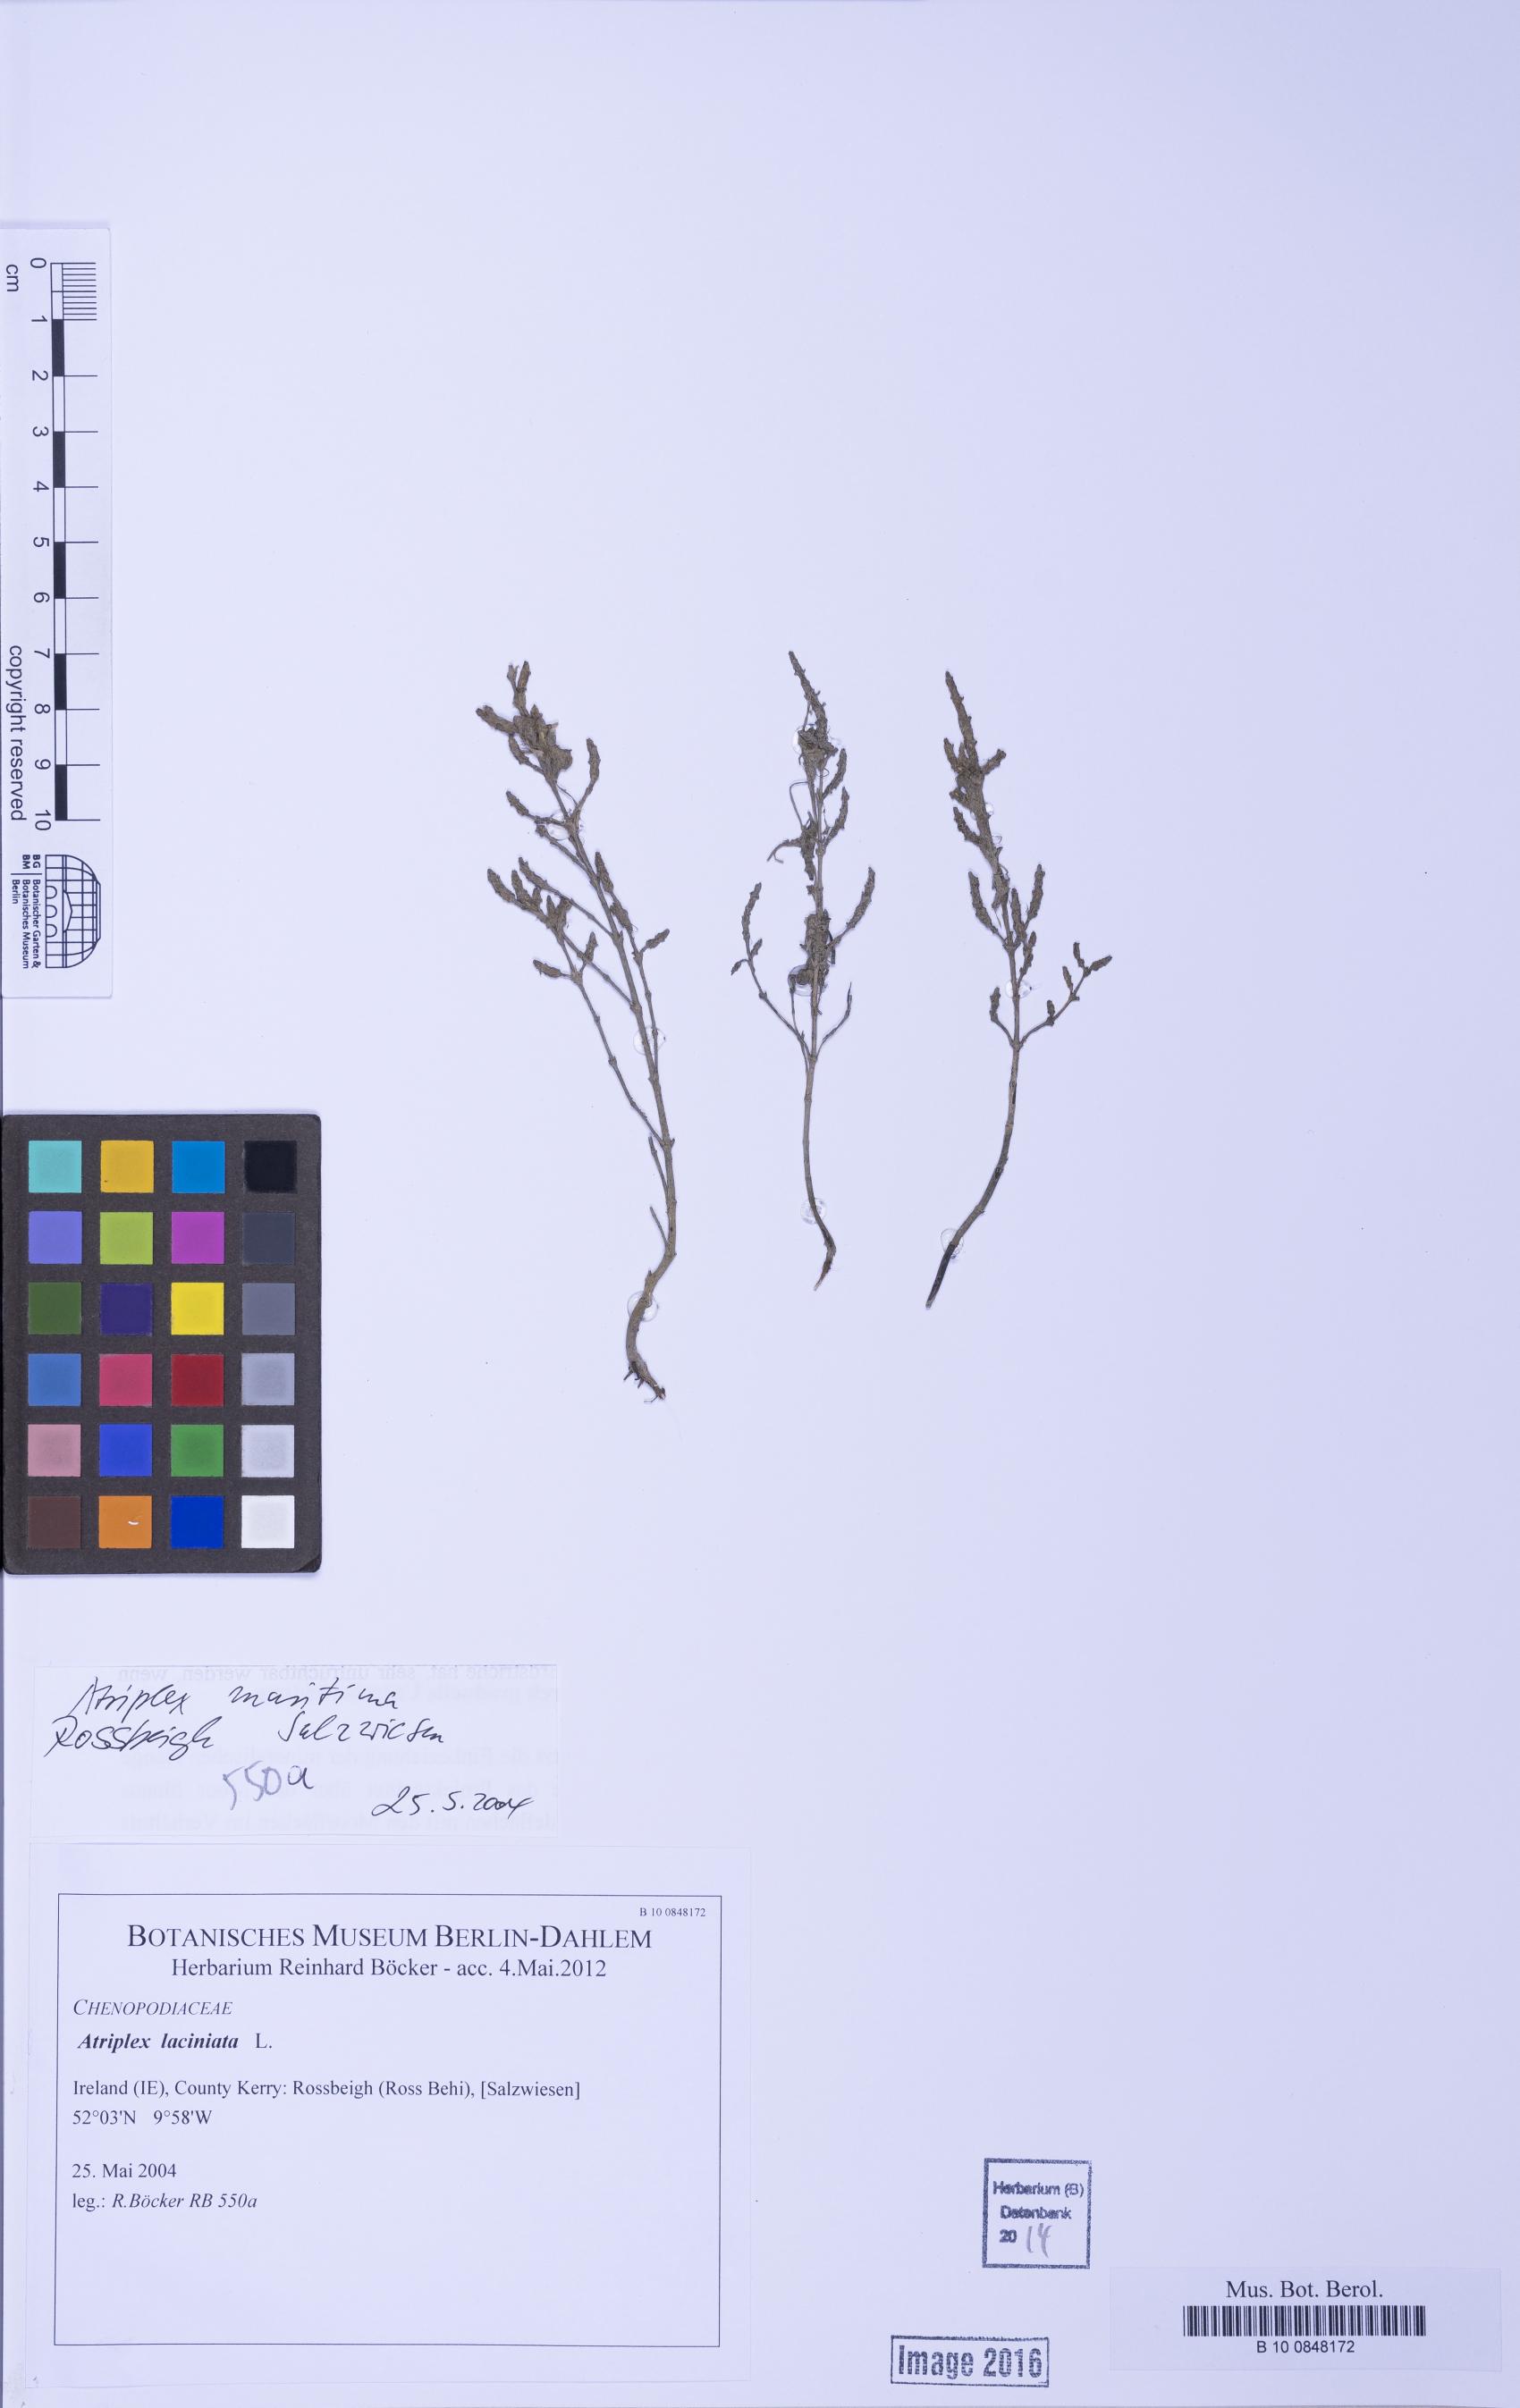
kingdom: Plantae
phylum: Tracheophyta
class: Magnoliopsida
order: Caryophyllales
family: Amaranthaceae
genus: Atriplex
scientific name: Atriplex laciniata
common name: Frosted orache
